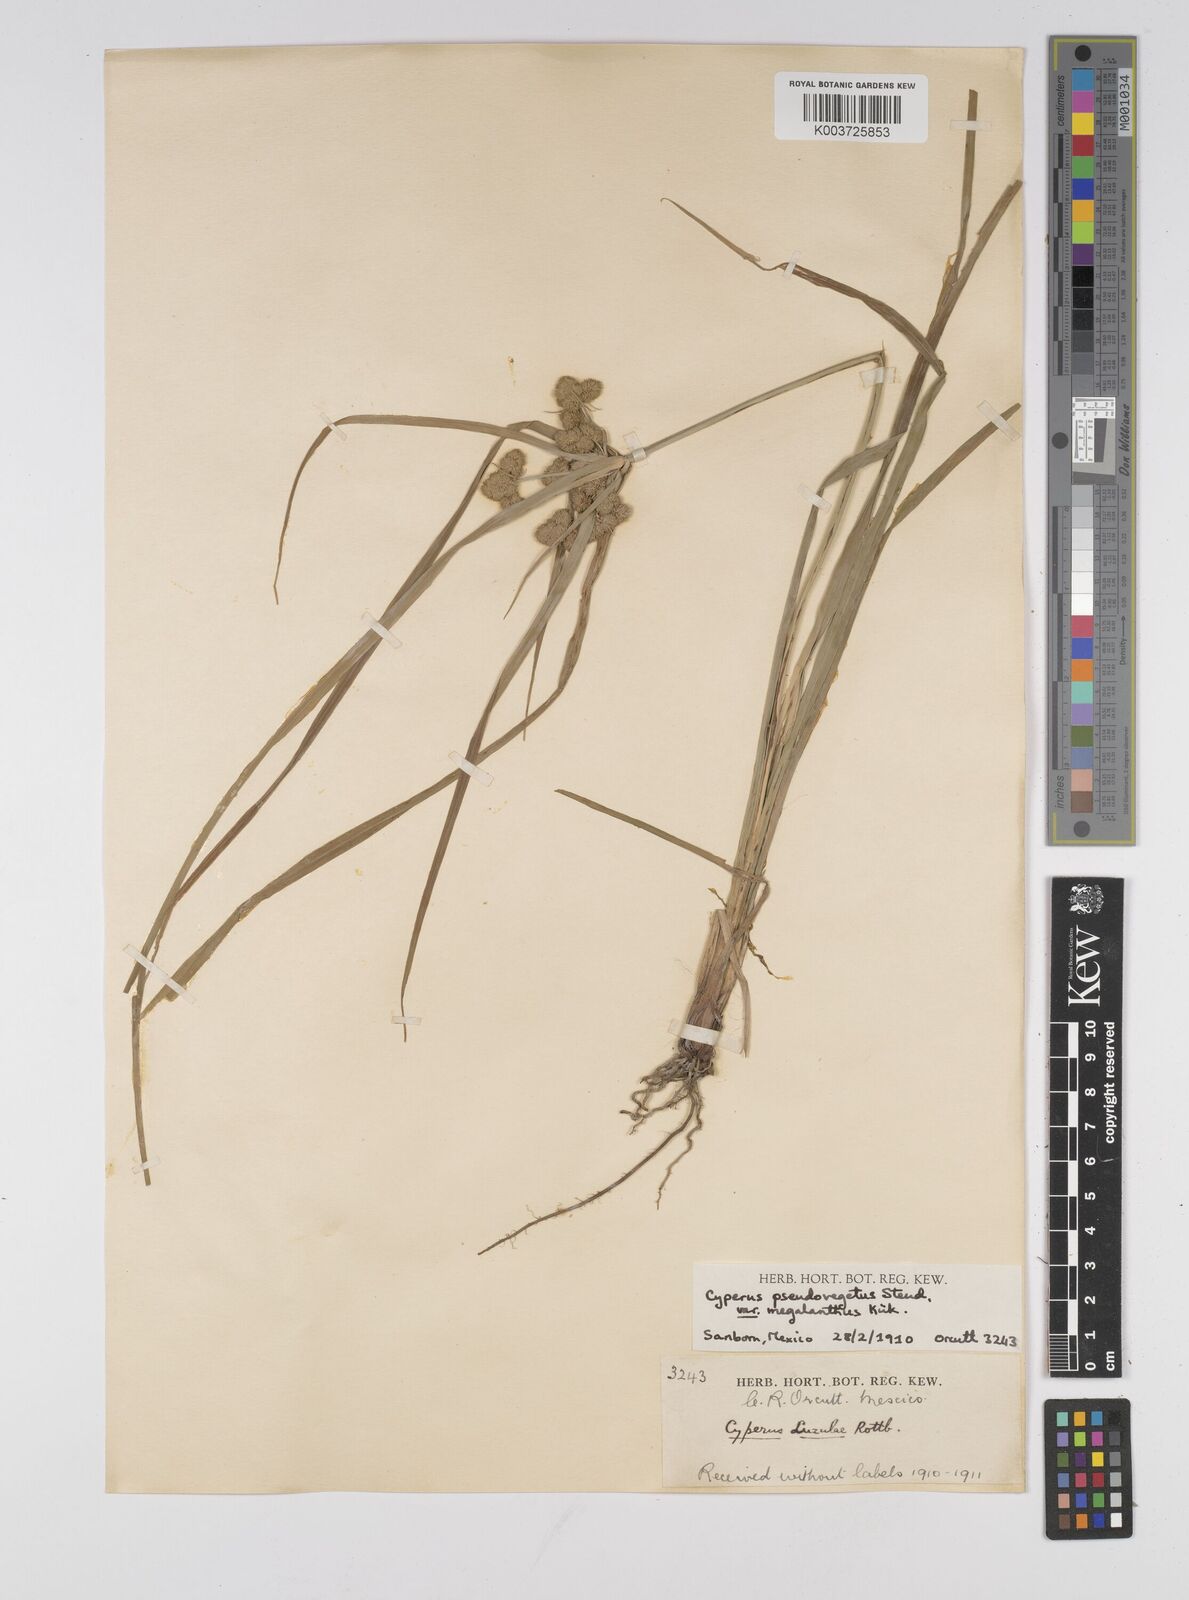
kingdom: Plantae
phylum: Tracheophyta
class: Liliopsida
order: Poales
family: Cyperaceae
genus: Cyperus
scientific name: Cyperus megalanthus
